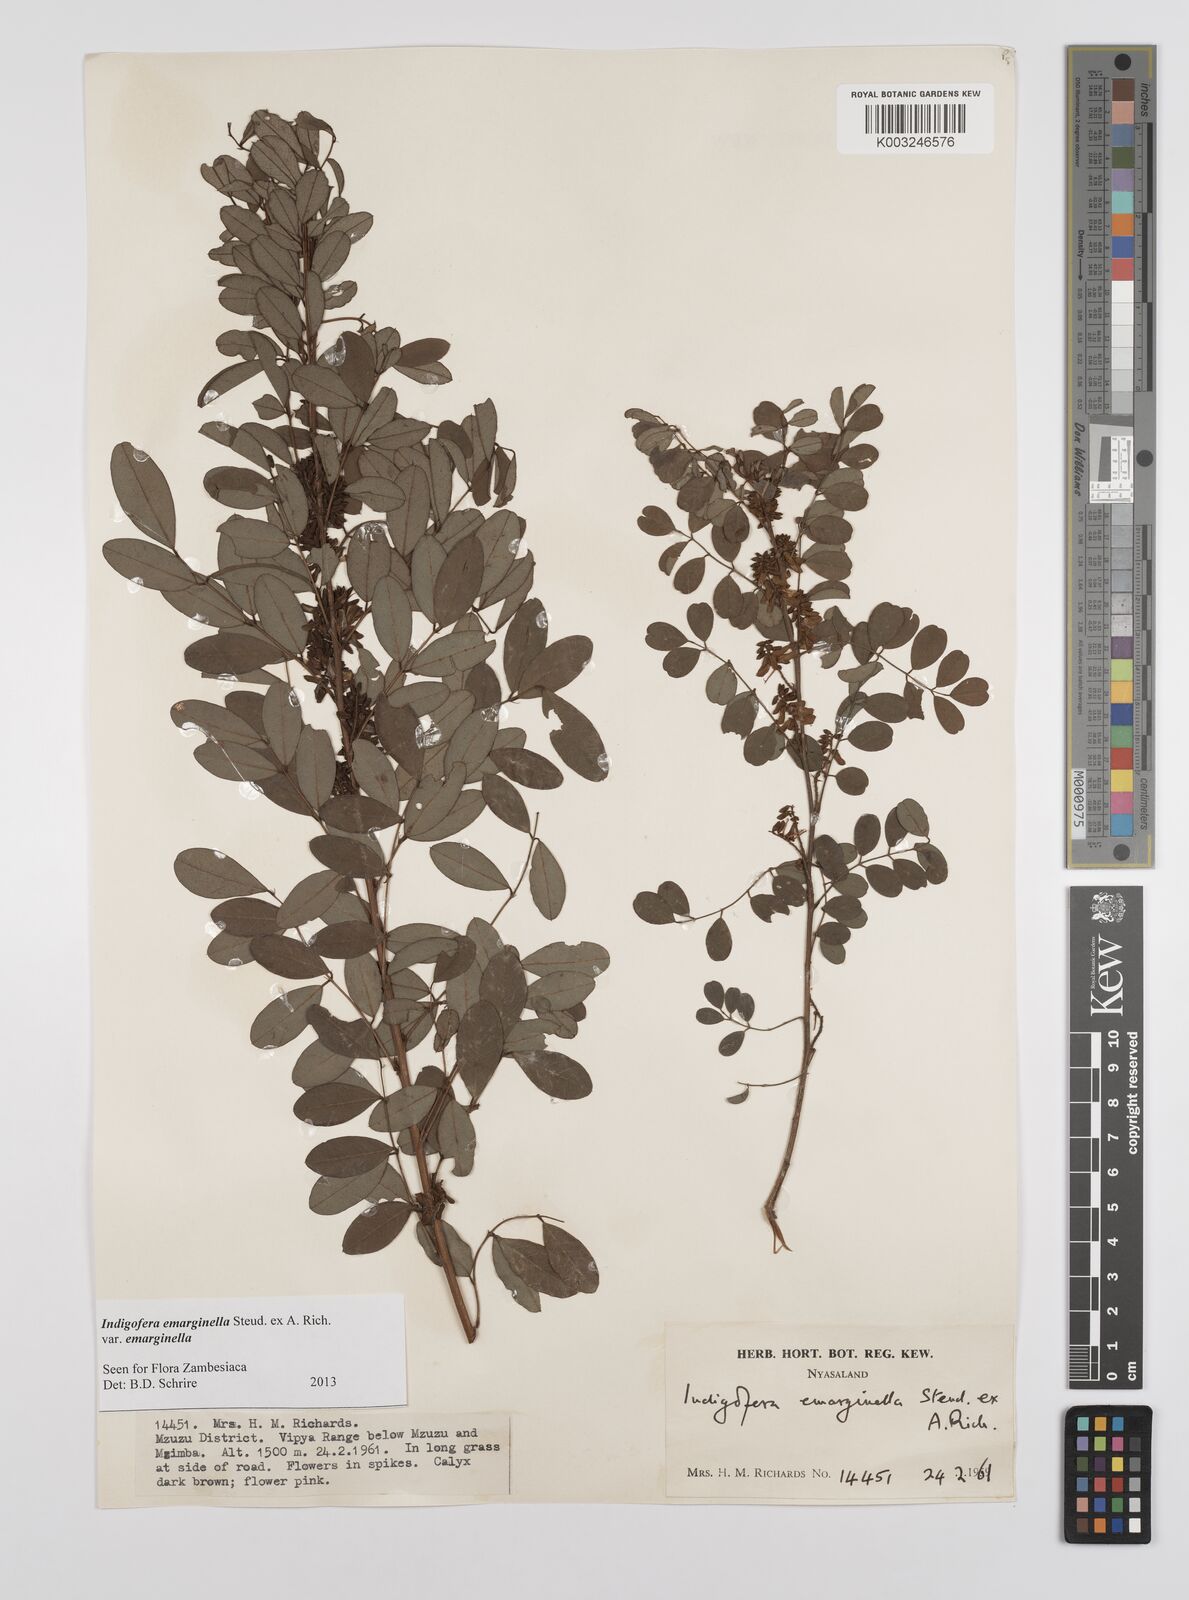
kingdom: Plantae
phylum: Tracheophyta
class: Magnoliopsida
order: Fabales
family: Fabaceae
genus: Indigofera
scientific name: Indigofera emarginella
